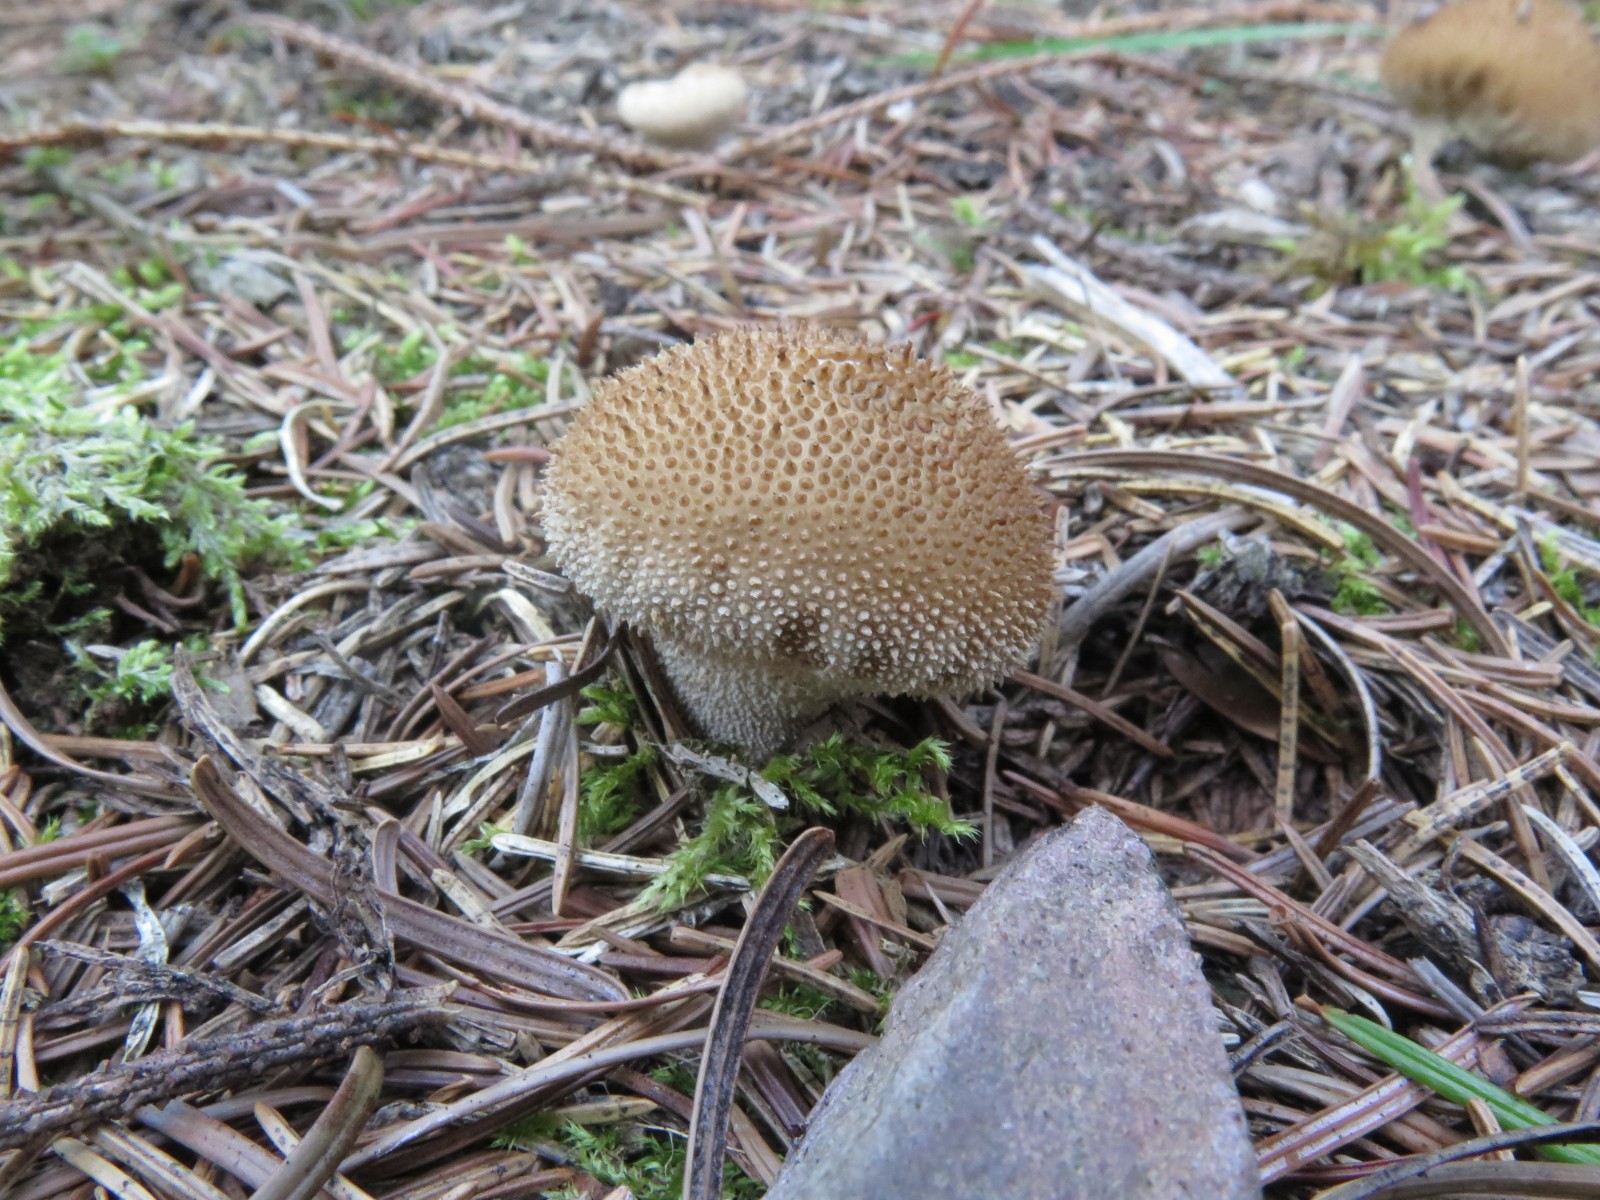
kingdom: Fungi
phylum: Basidiomycota
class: Agaricomycetes
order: Agaricales
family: Lycoperdaceae
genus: Lycoperdon
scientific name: Lycoperdon perlatum
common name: krystal-støvbold
